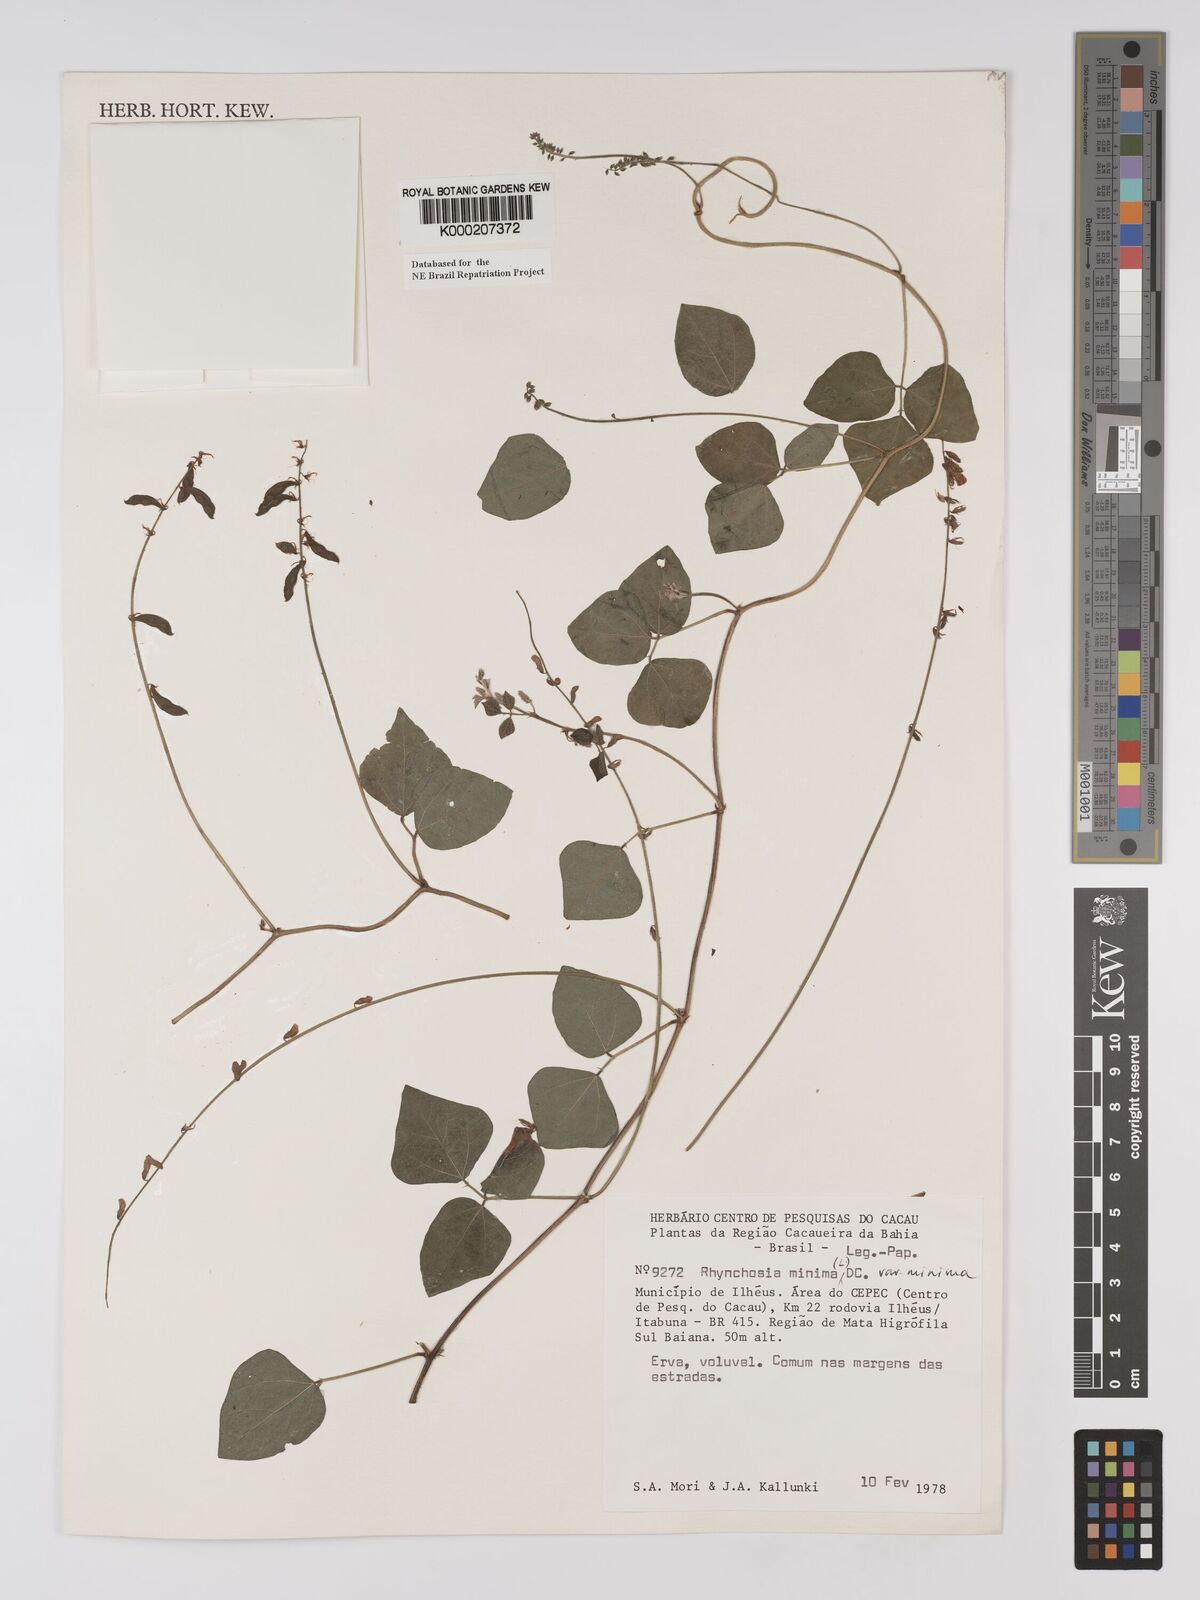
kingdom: Plantae
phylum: Tracheophyta
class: Magnoliopsida
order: Fabales
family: Fabaceae
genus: Rhynchosia
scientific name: Rhynchosia minima
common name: Least snoutbean
